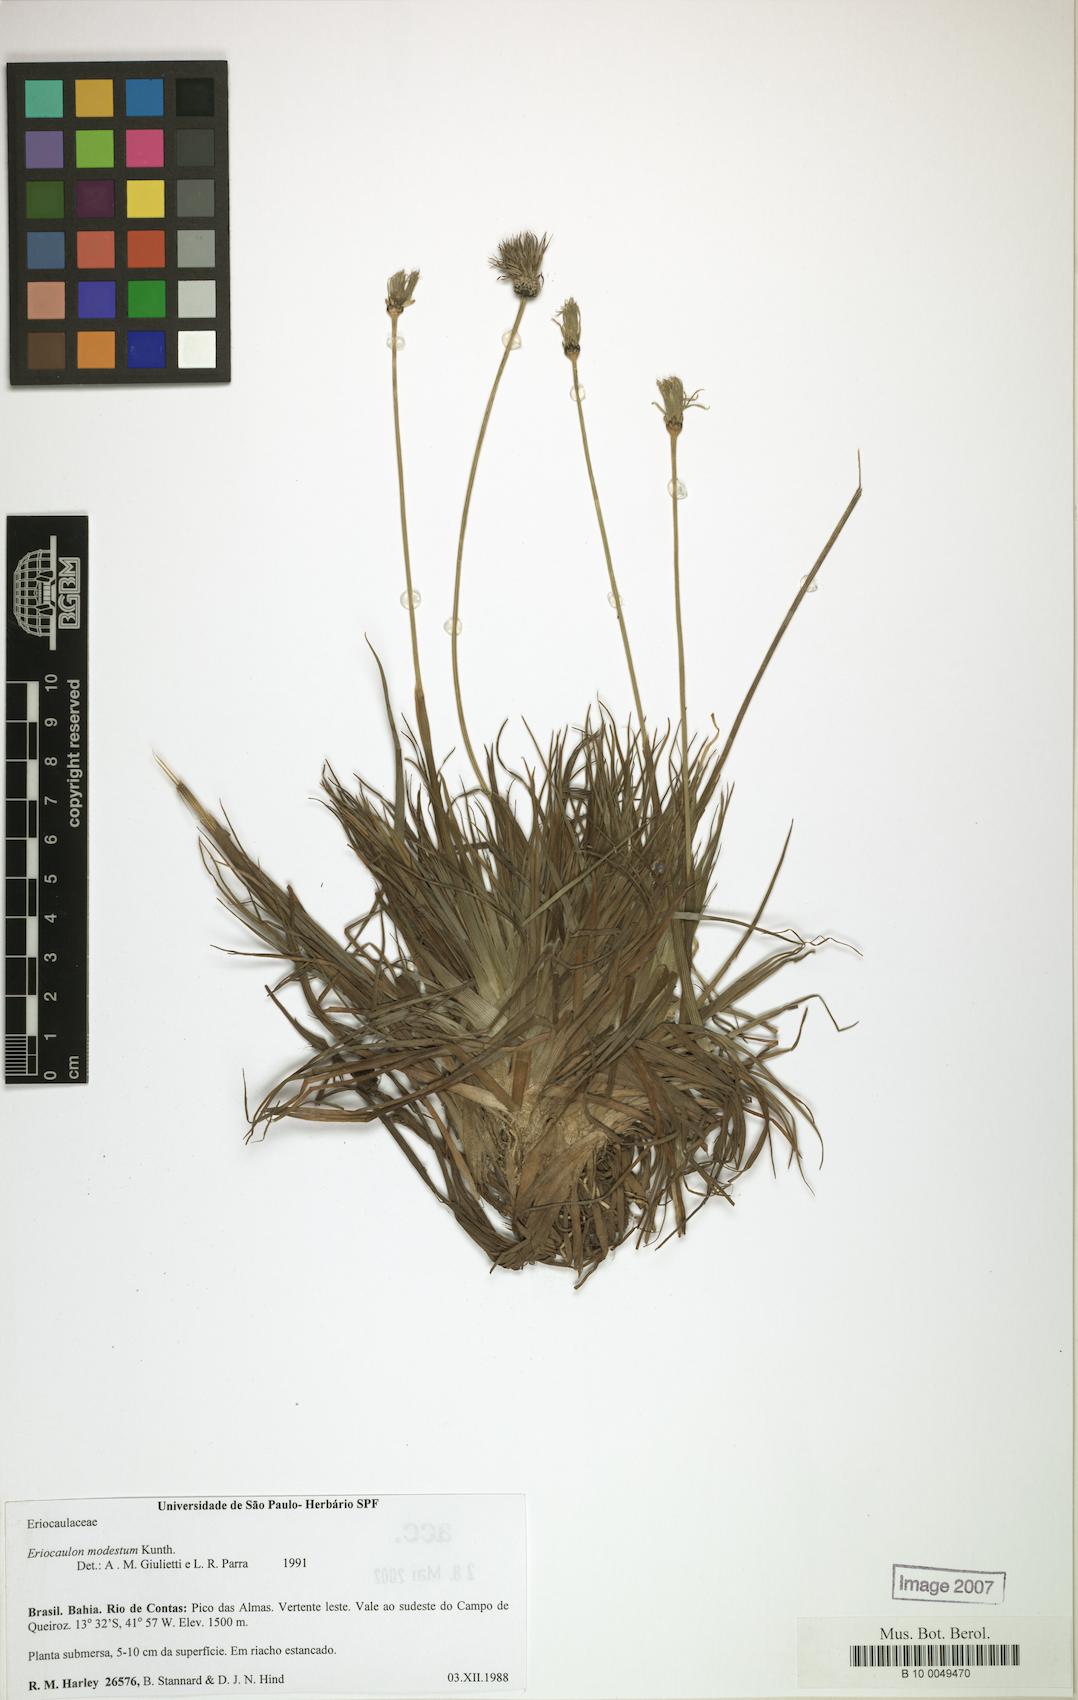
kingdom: Plantae
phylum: Tracheophyta
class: Liliopsida
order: Poales
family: Eriocaulaceae
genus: Eriocaulon
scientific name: Eriocaulon modestum
